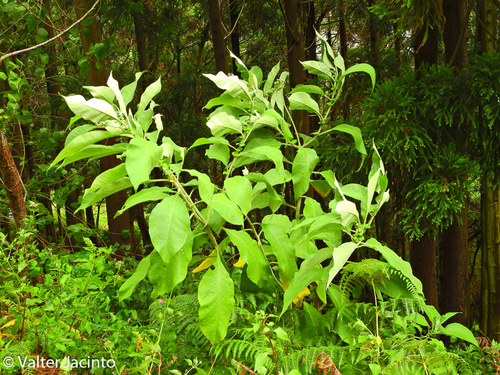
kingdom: Plantae
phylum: Tracheophyta
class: Magnoliopsida
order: Solanales
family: Solanaceae
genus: Solanum
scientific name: Solanum mauritianum
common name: Earleaf nightshade
